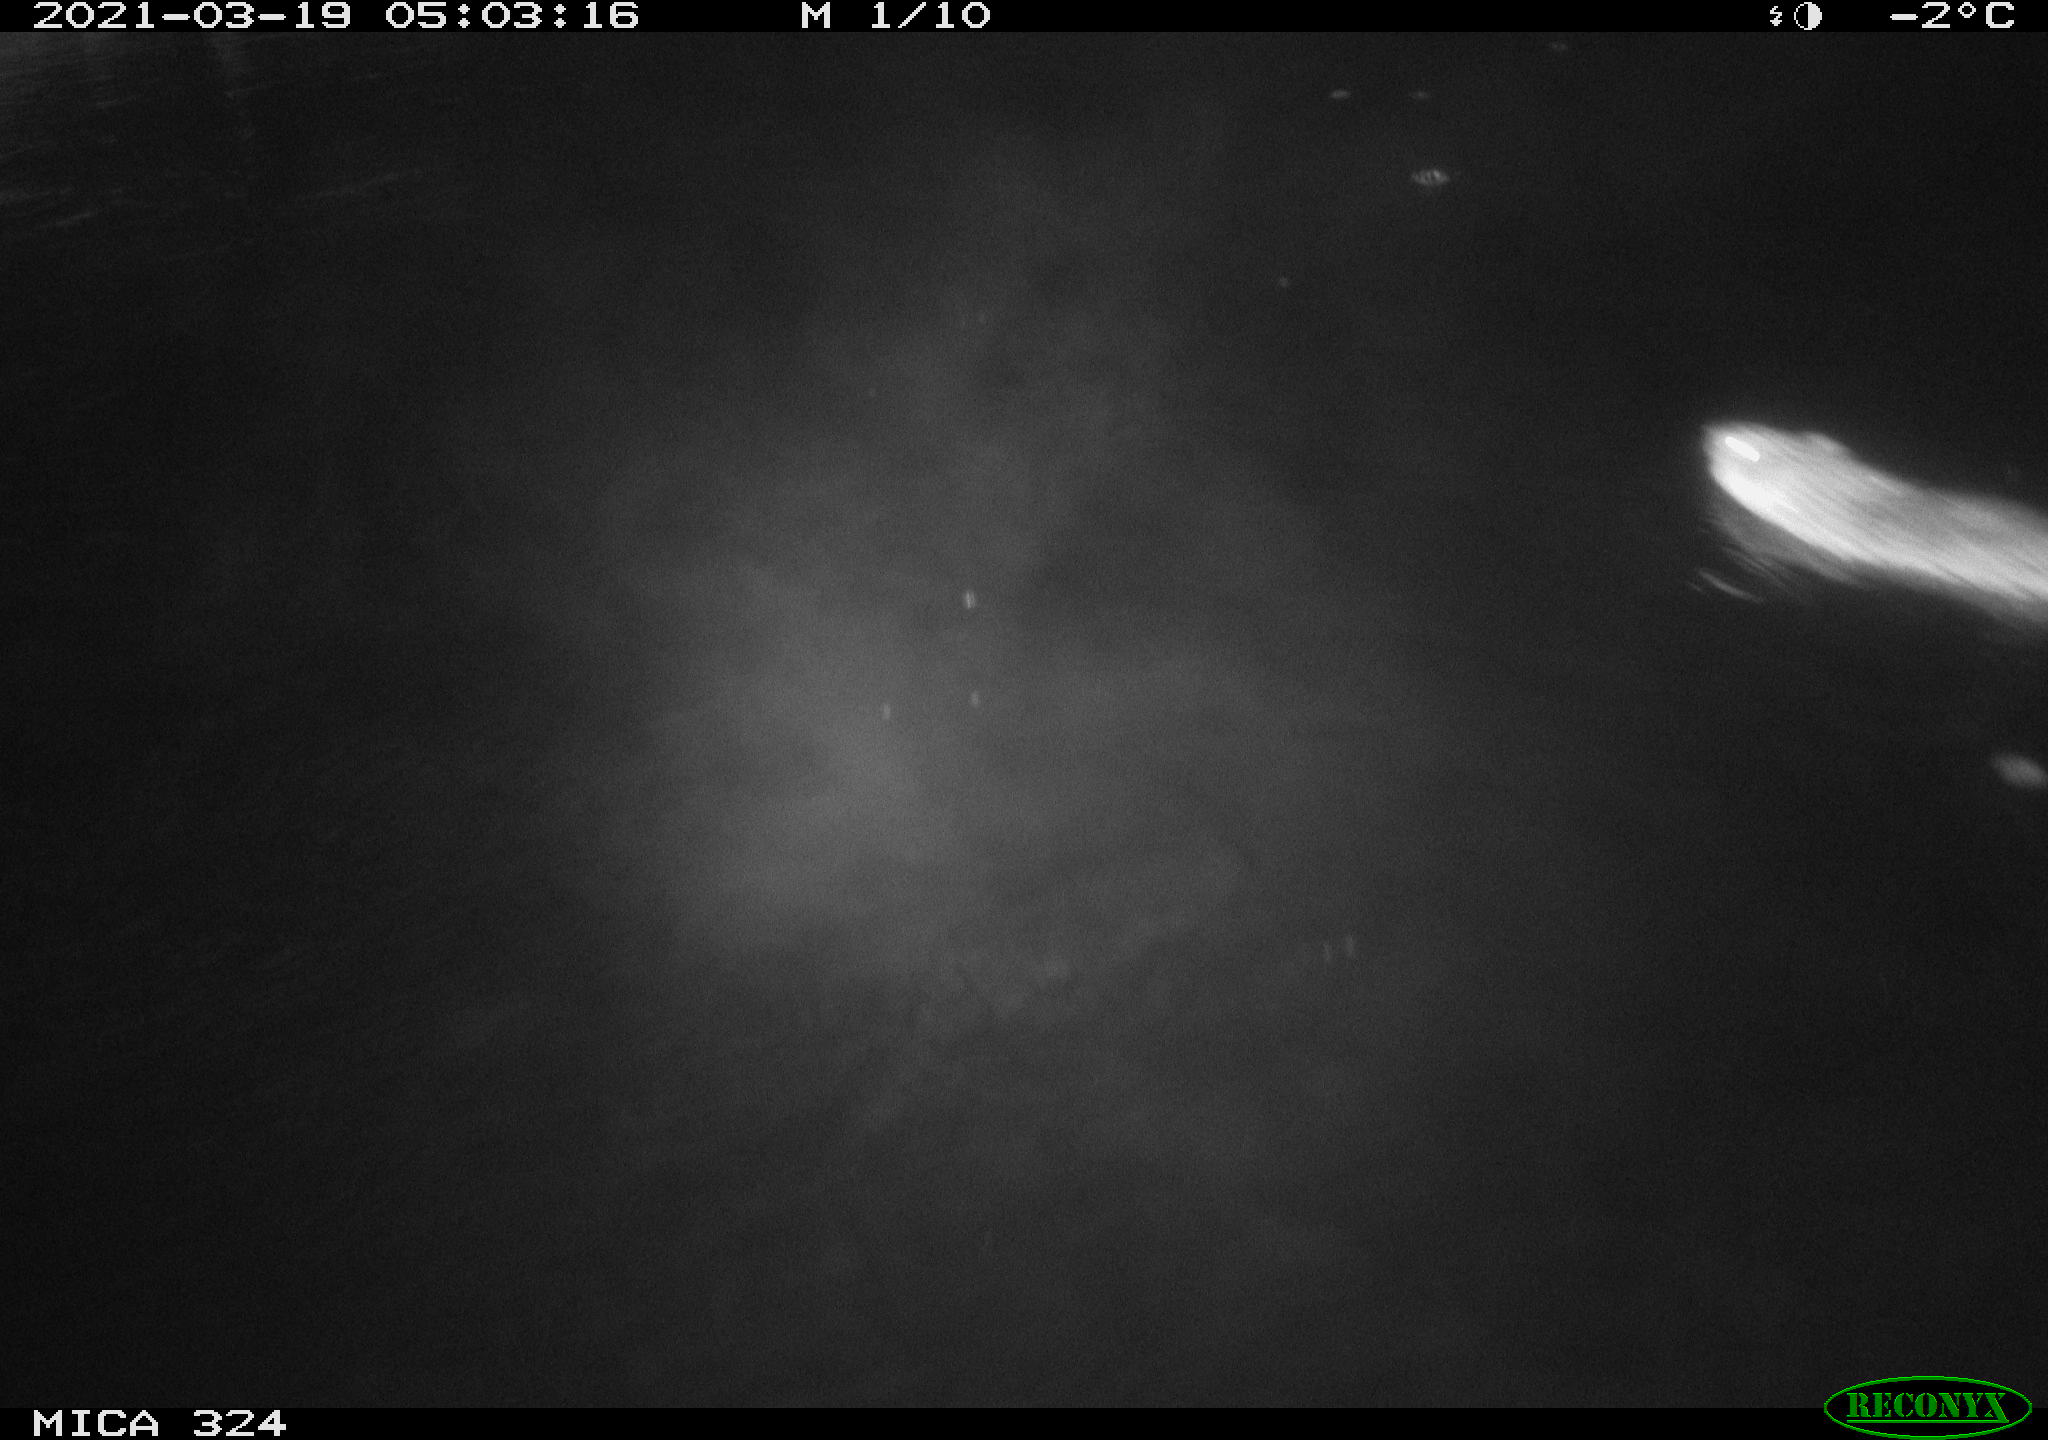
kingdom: Animalia
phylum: Chordata
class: Mammalia
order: Rodentia
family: Cricetidae
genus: Ondatra
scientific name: Ondatra zibethicus
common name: Muskrat
